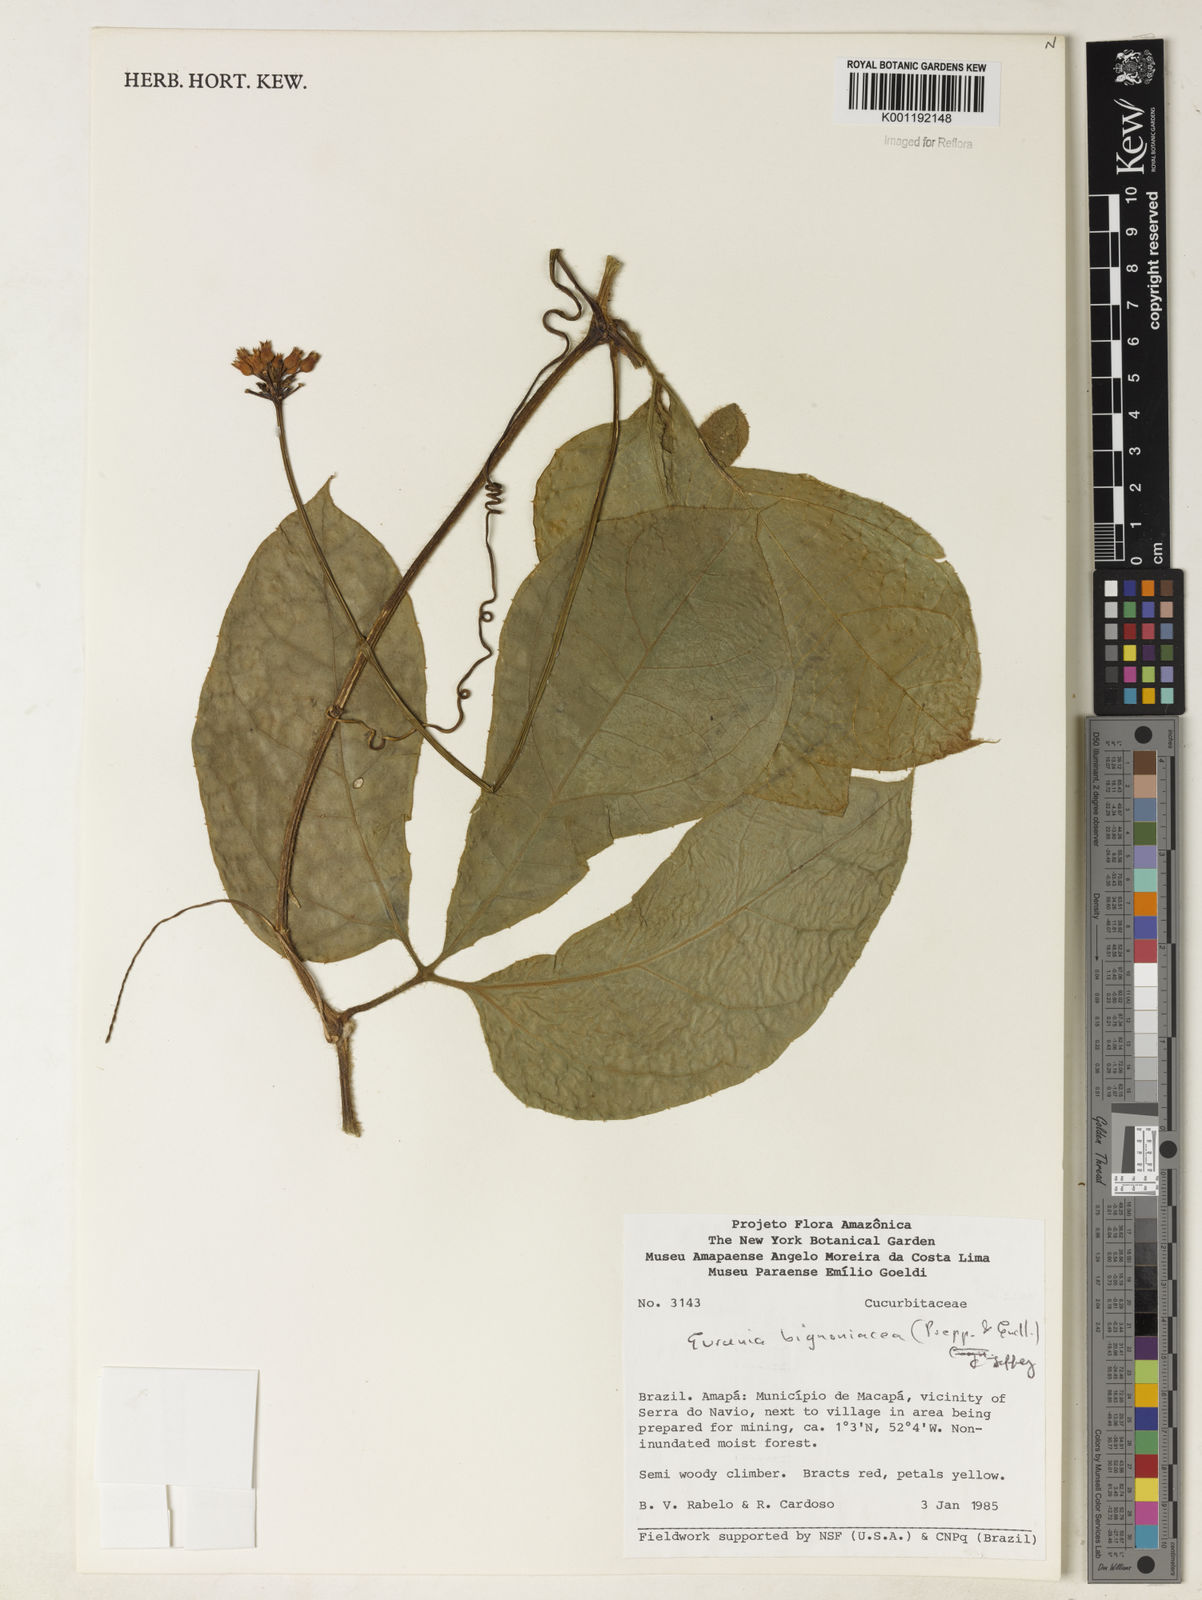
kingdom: Plantae
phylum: Tracheophyta
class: Magnoliopsida
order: Cucurbitales
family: Cucurbitaceae
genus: Gurania
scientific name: Gurania bignoniacea
